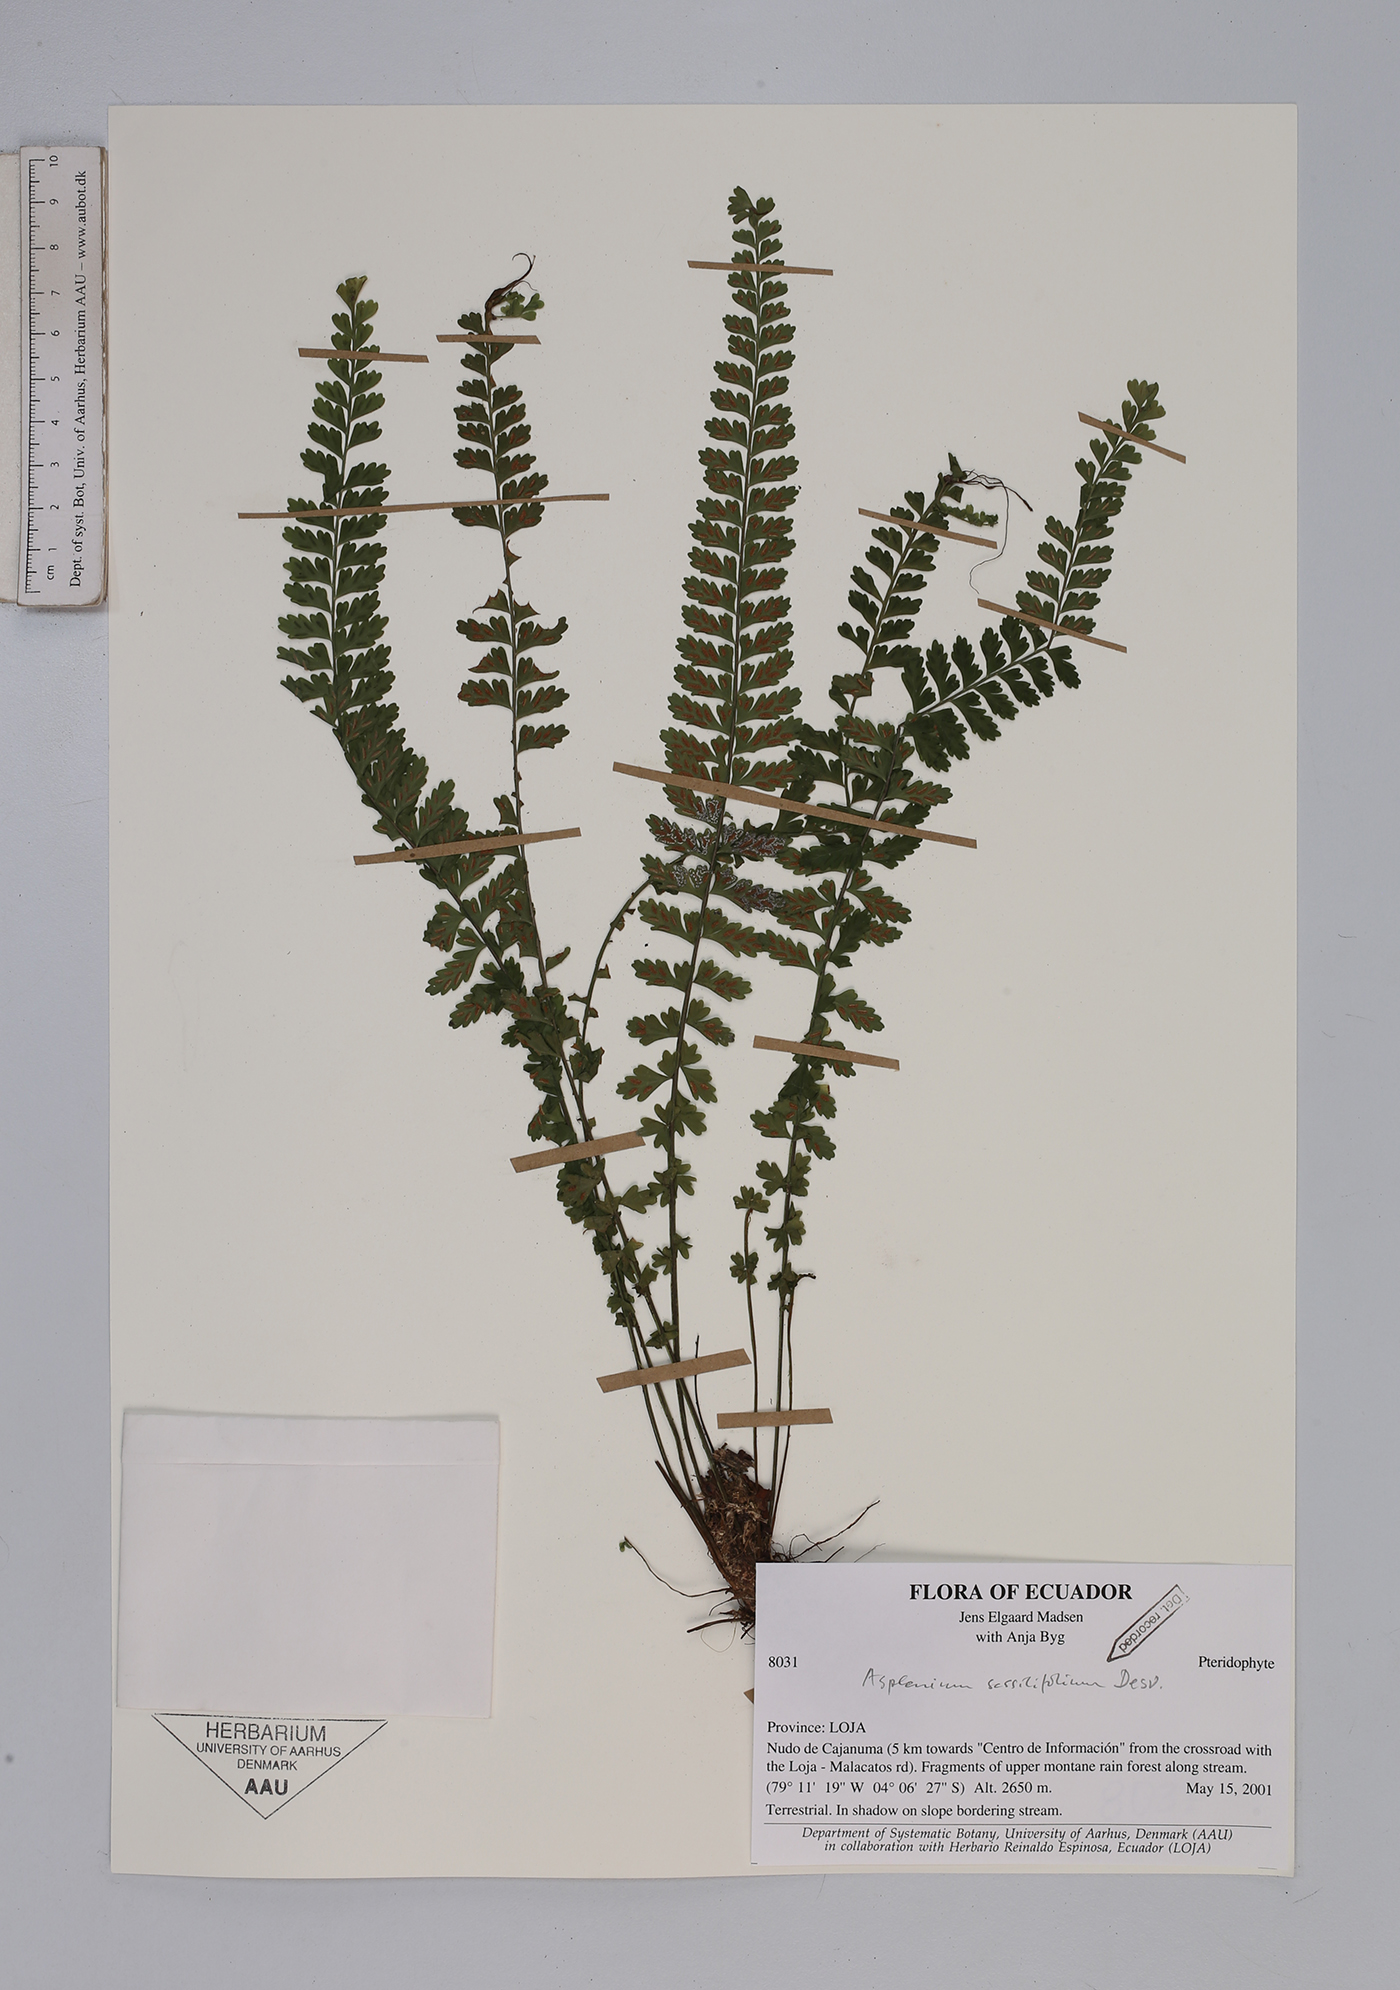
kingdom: Plantae
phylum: Tracheophyta
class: Polypodiopsida
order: Polypodiales
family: Aspleniaceae
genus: Asplenium
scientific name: Asplenium sessilifolium
